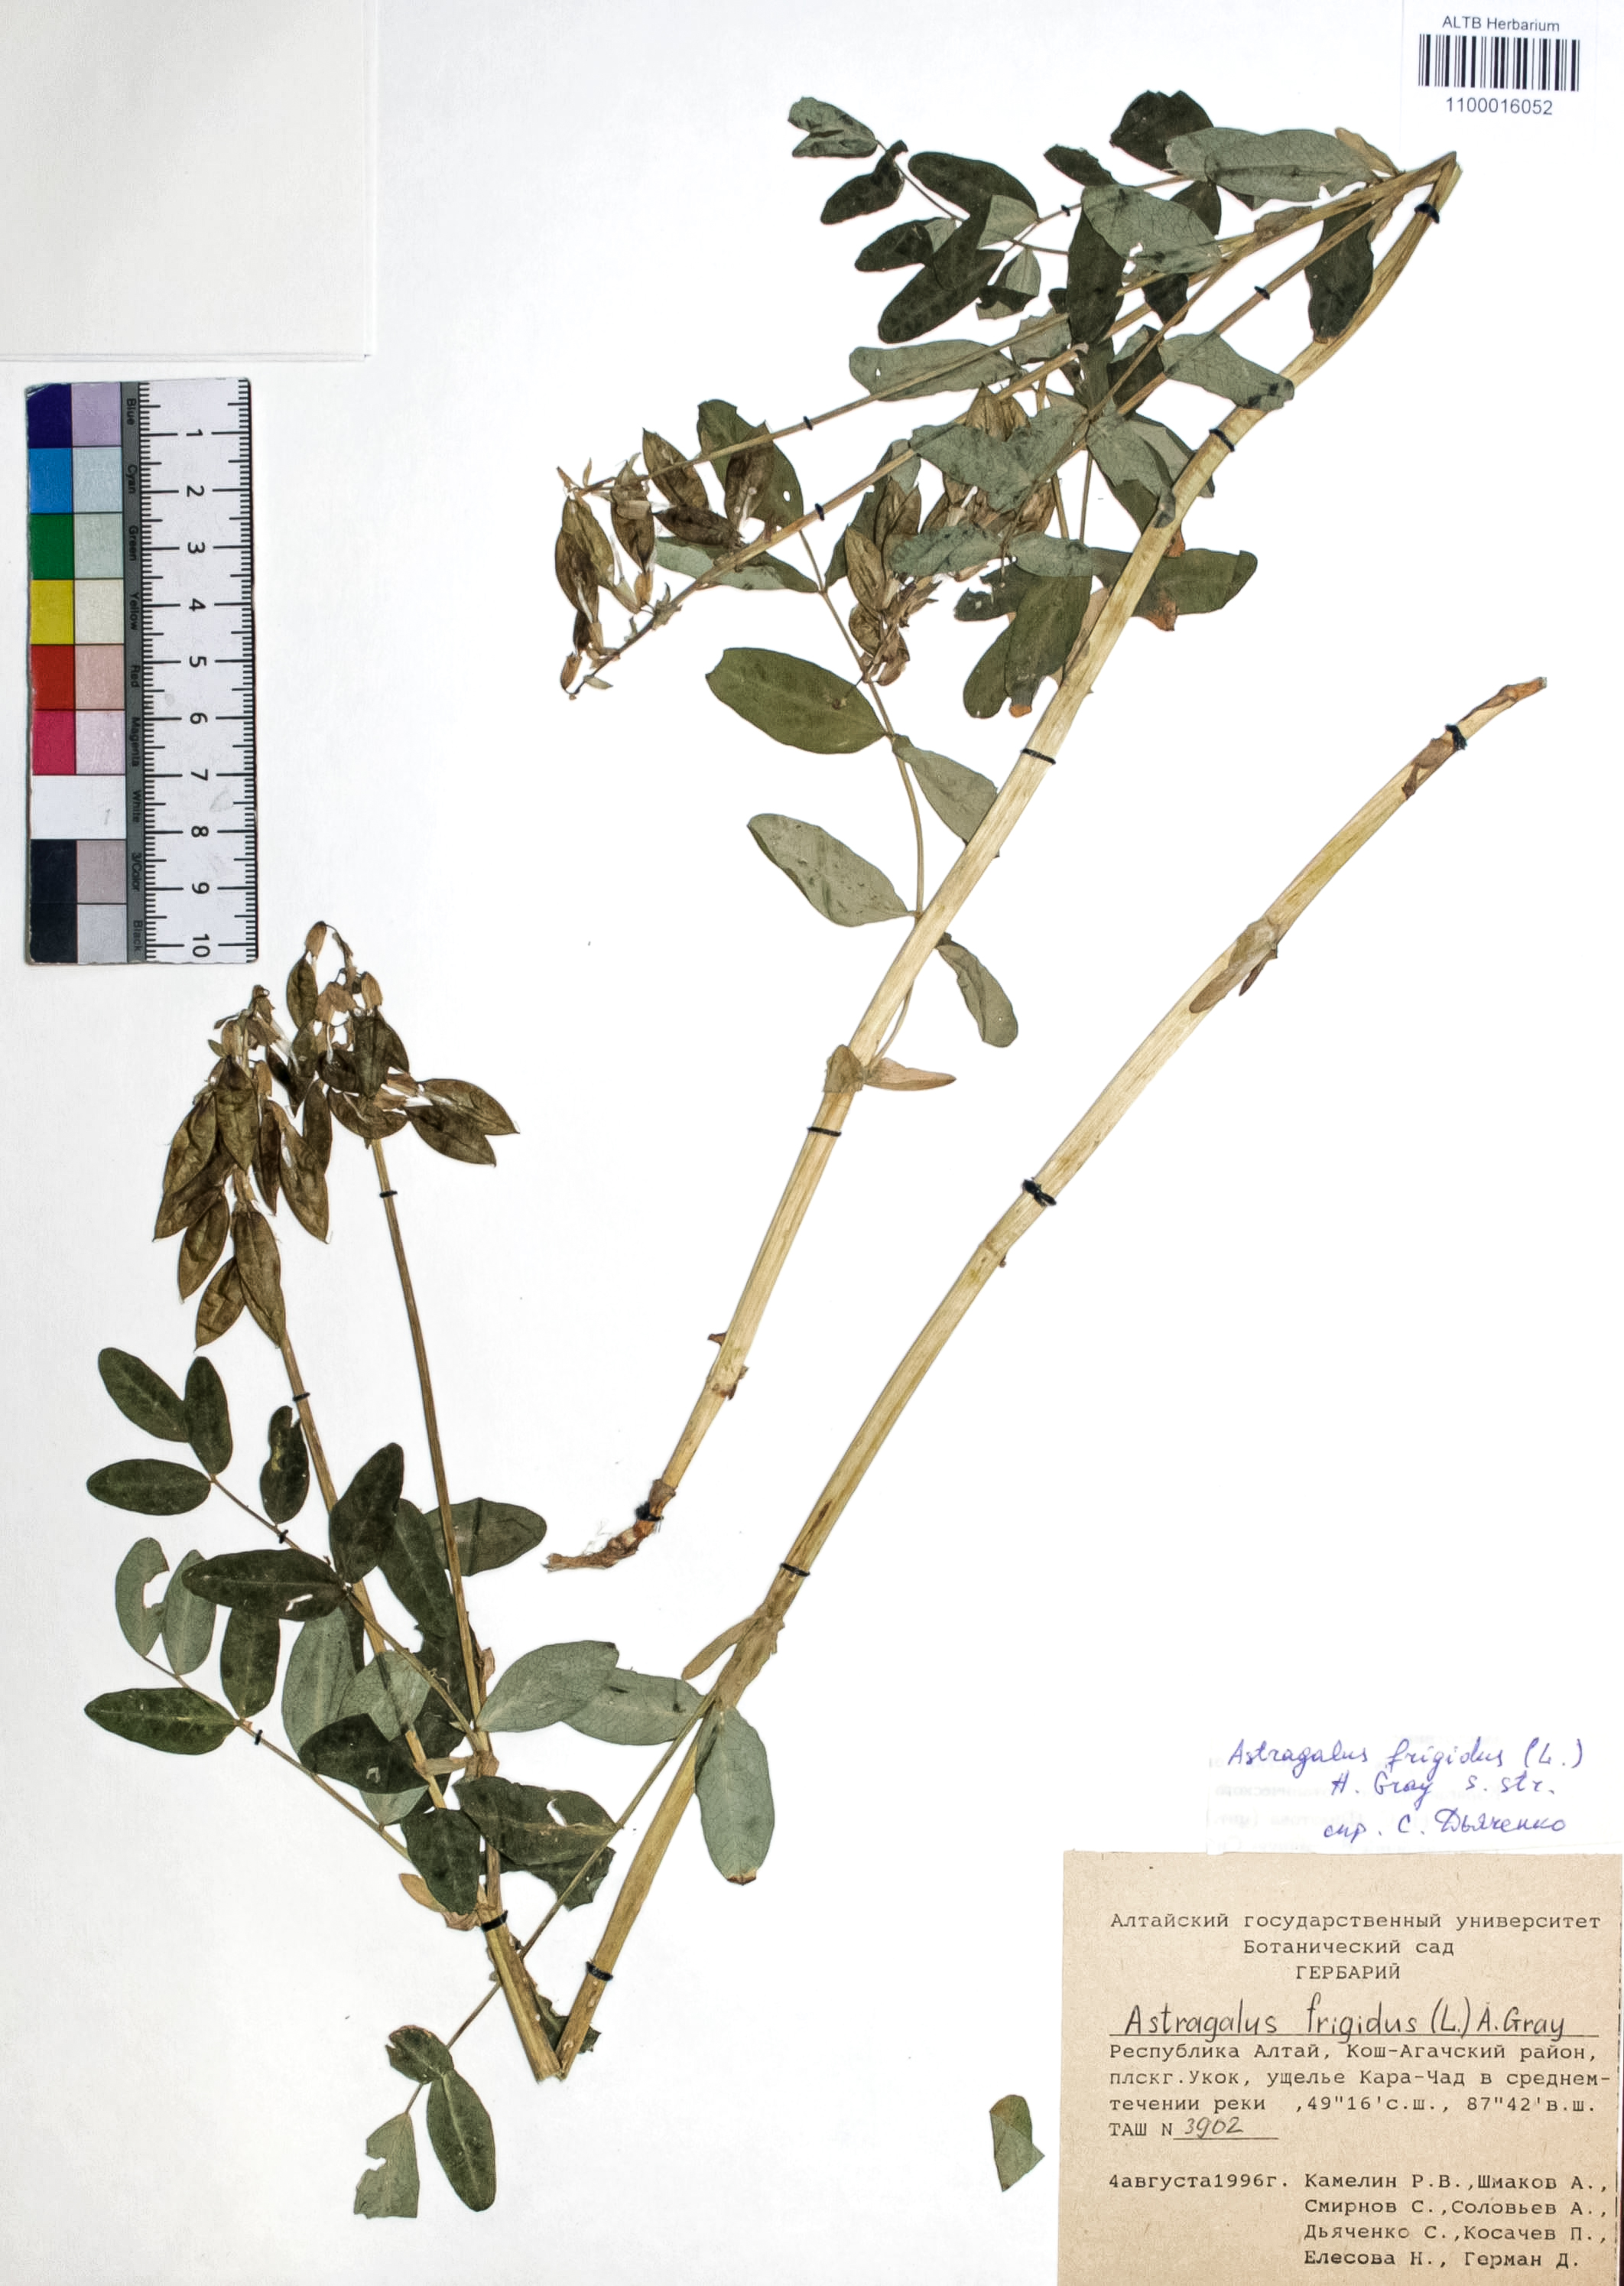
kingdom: Plantae
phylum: Tracheophyta
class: Magnoliopsida
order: Fabales
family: Fabaceae
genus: Astragalus
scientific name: Astragalus frigidus
